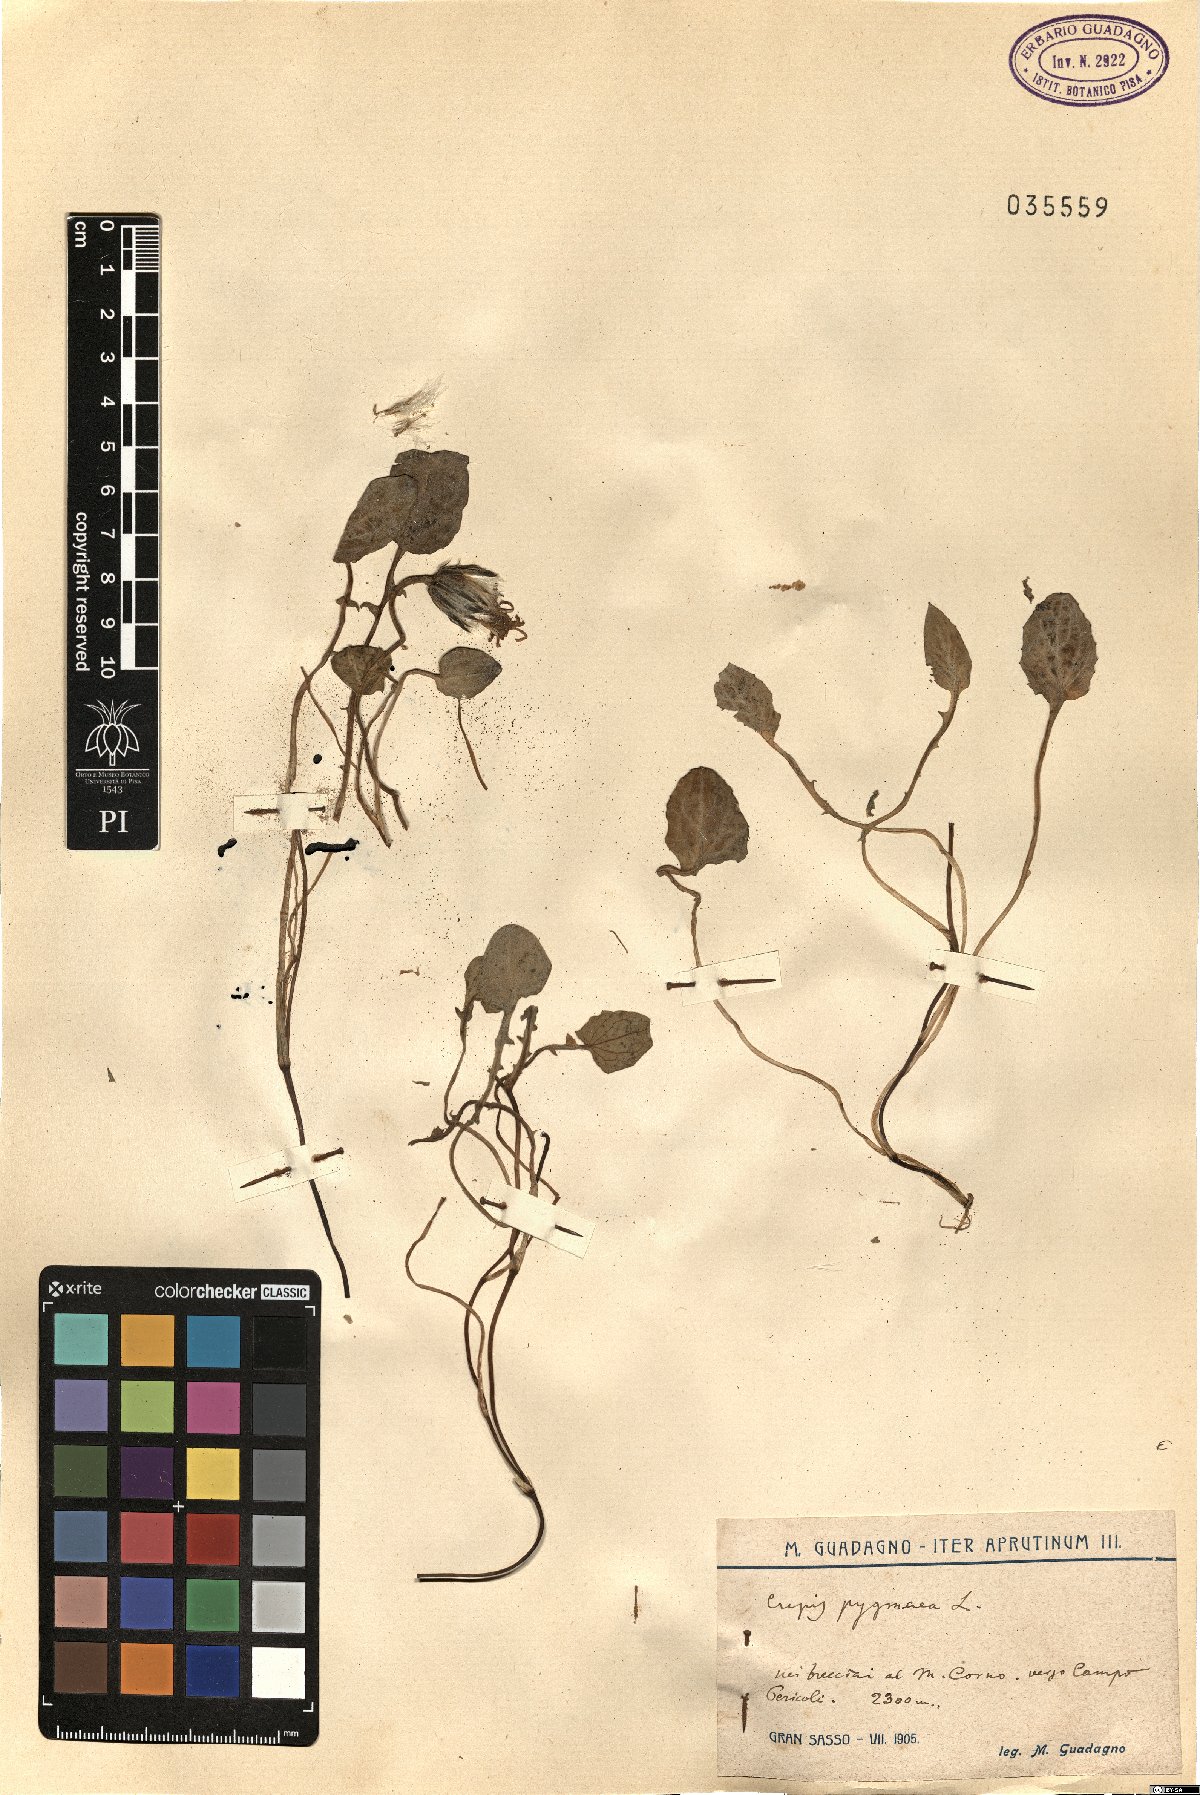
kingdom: Plantae
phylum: Tracheophyta
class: Magnoliopsida
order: Asterales
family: Asteraceae
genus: Crepis
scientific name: Crepis pygmaea
